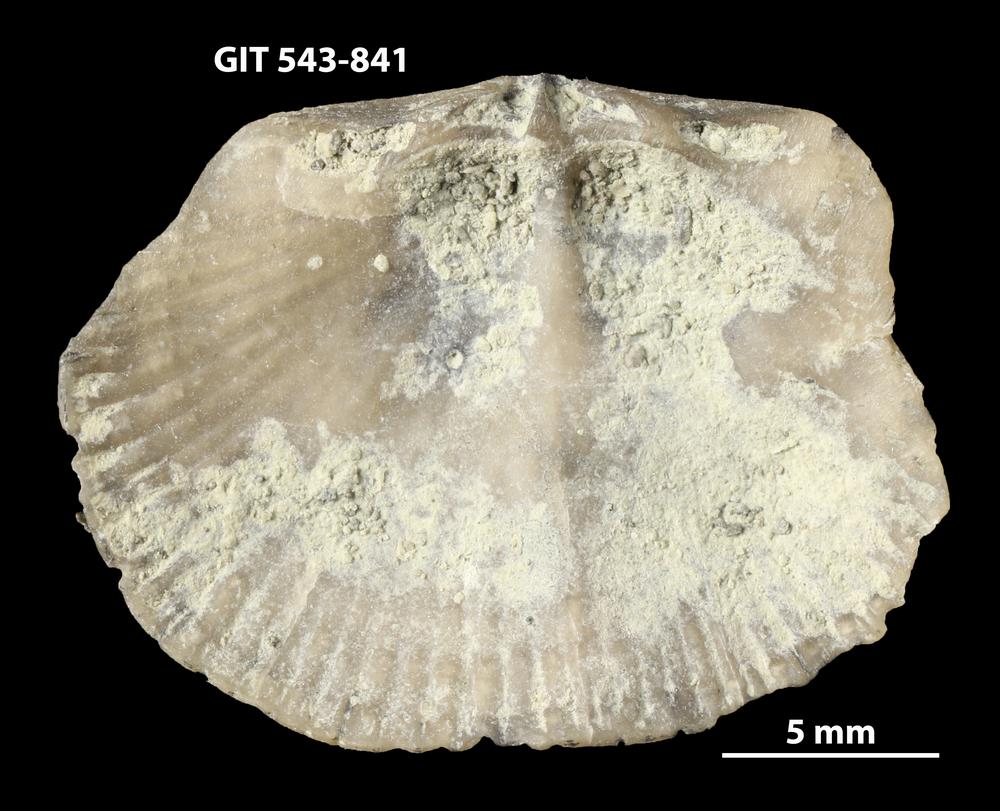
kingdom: Animalia
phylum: Brachiopoda
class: Rhynchonellata
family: Clitambonitidae
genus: Vellamo
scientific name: Vellamo oandoensis
